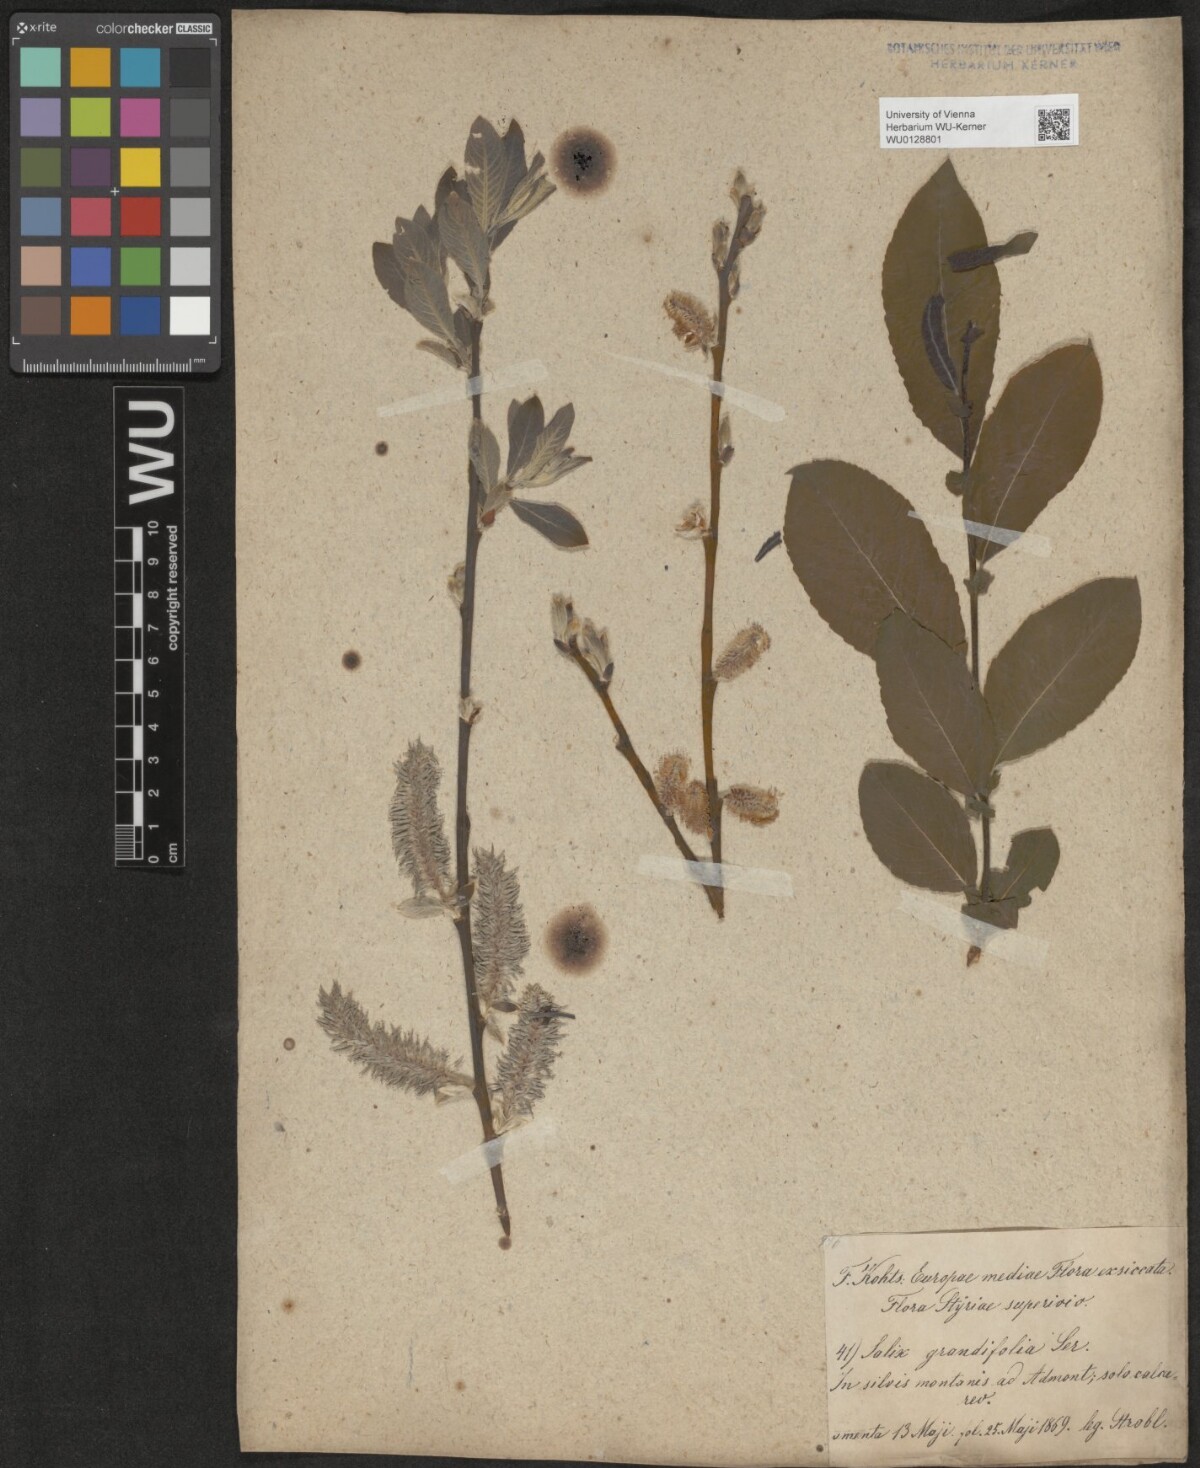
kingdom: Plantae
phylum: Tracheophyta
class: Magnoliopsida
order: Malpighiales
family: Salicaceae
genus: Salix
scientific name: Salix appendiculata
